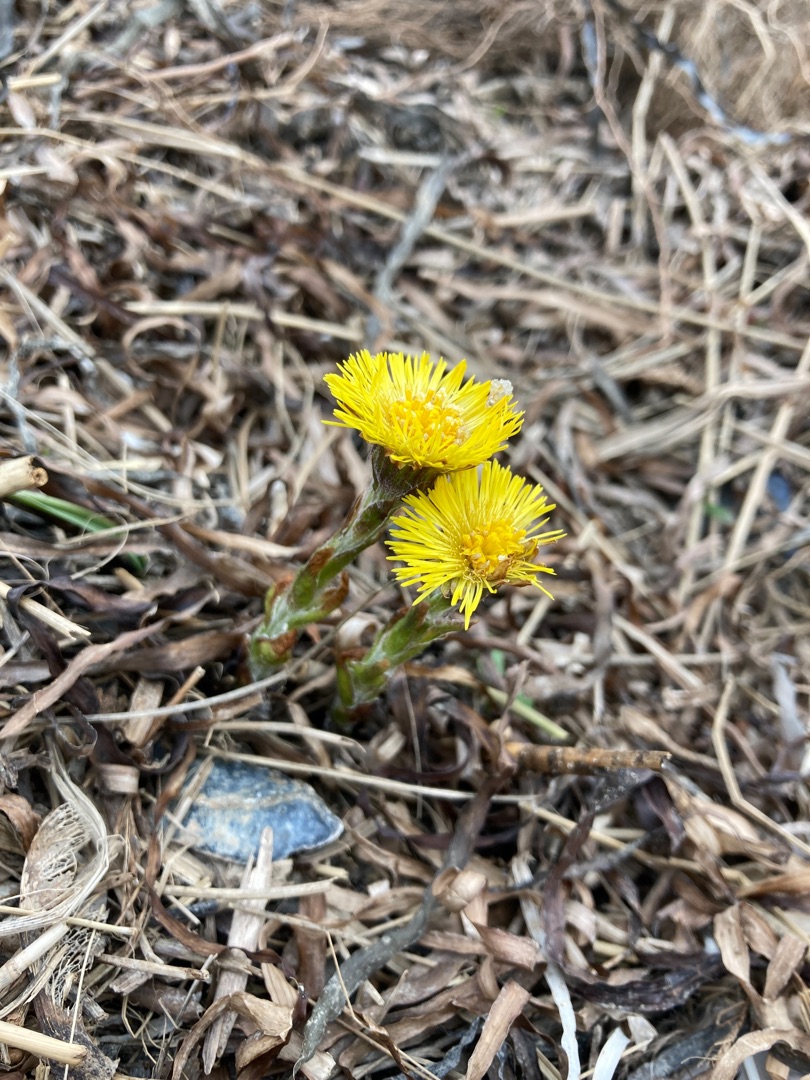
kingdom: Plantae
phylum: Tracheophyta
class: Magnoliopsida
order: Asterales
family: Asteraceae
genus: Tussilago
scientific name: Tussilago farfara
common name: Følfod
